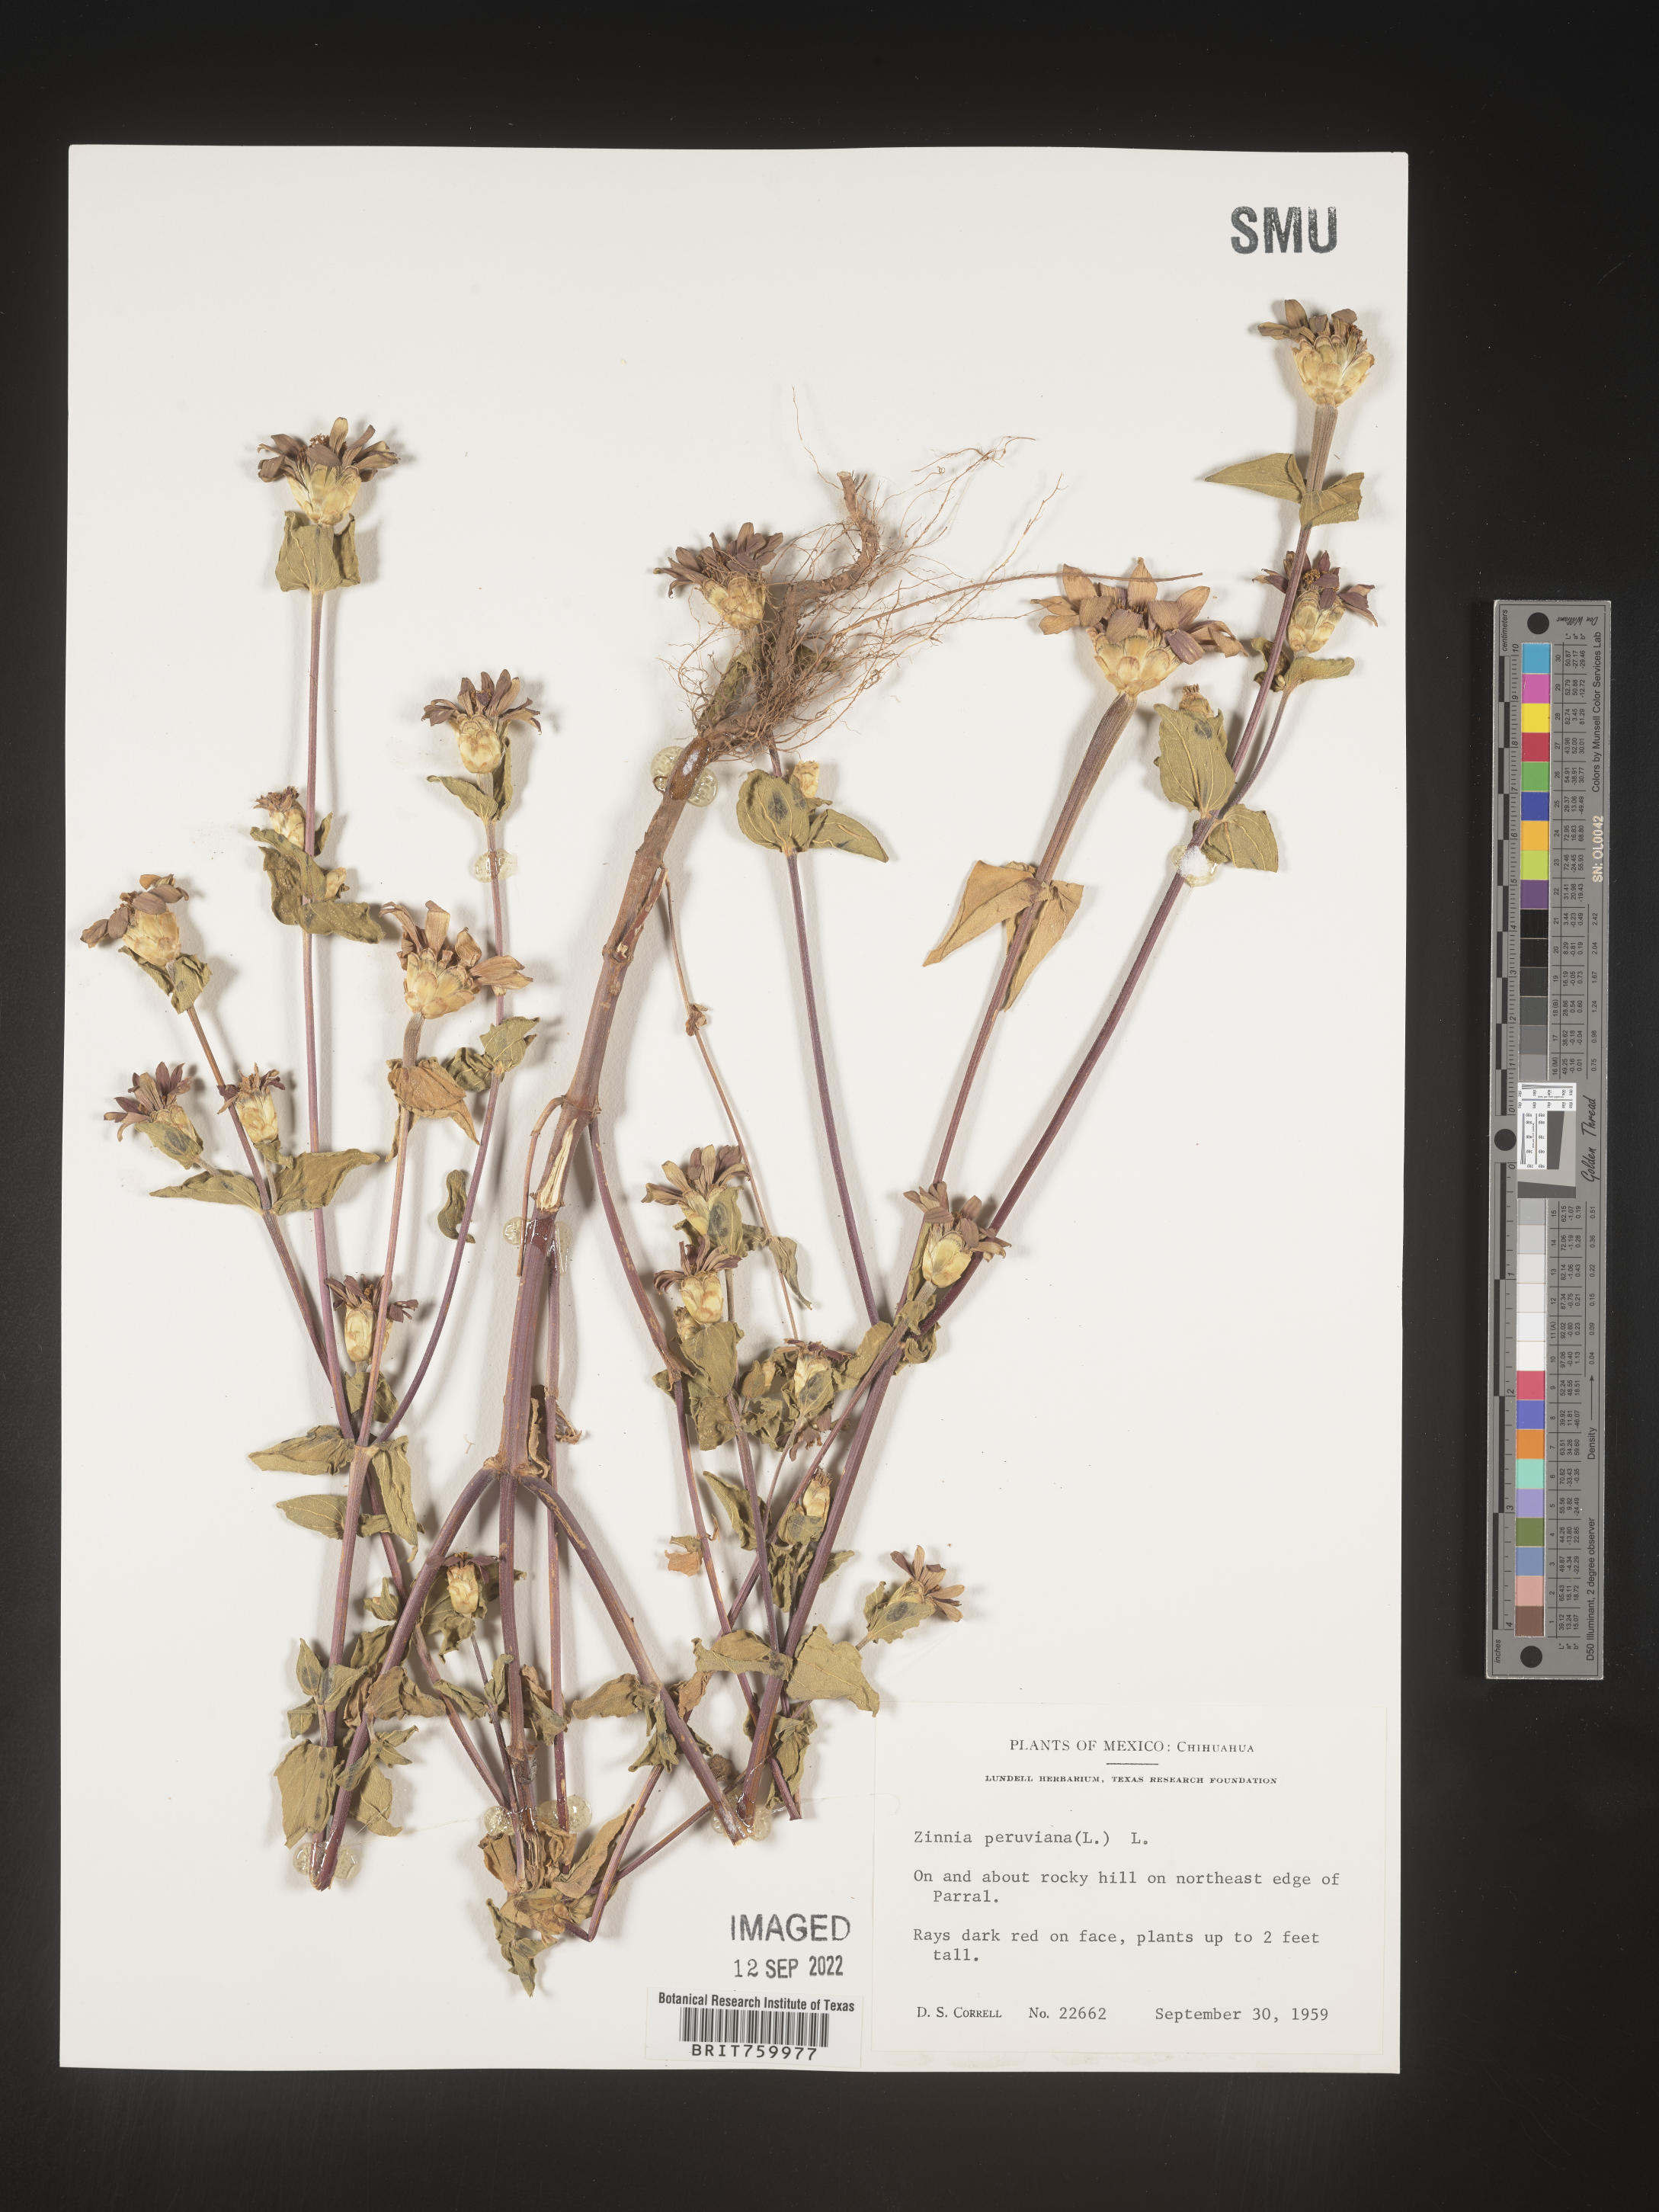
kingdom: Plantae
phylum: Tracheophyta
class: Magnoliopsida
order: Asterales
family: Asteraceae
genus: Zinnia
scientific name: Zinnia
